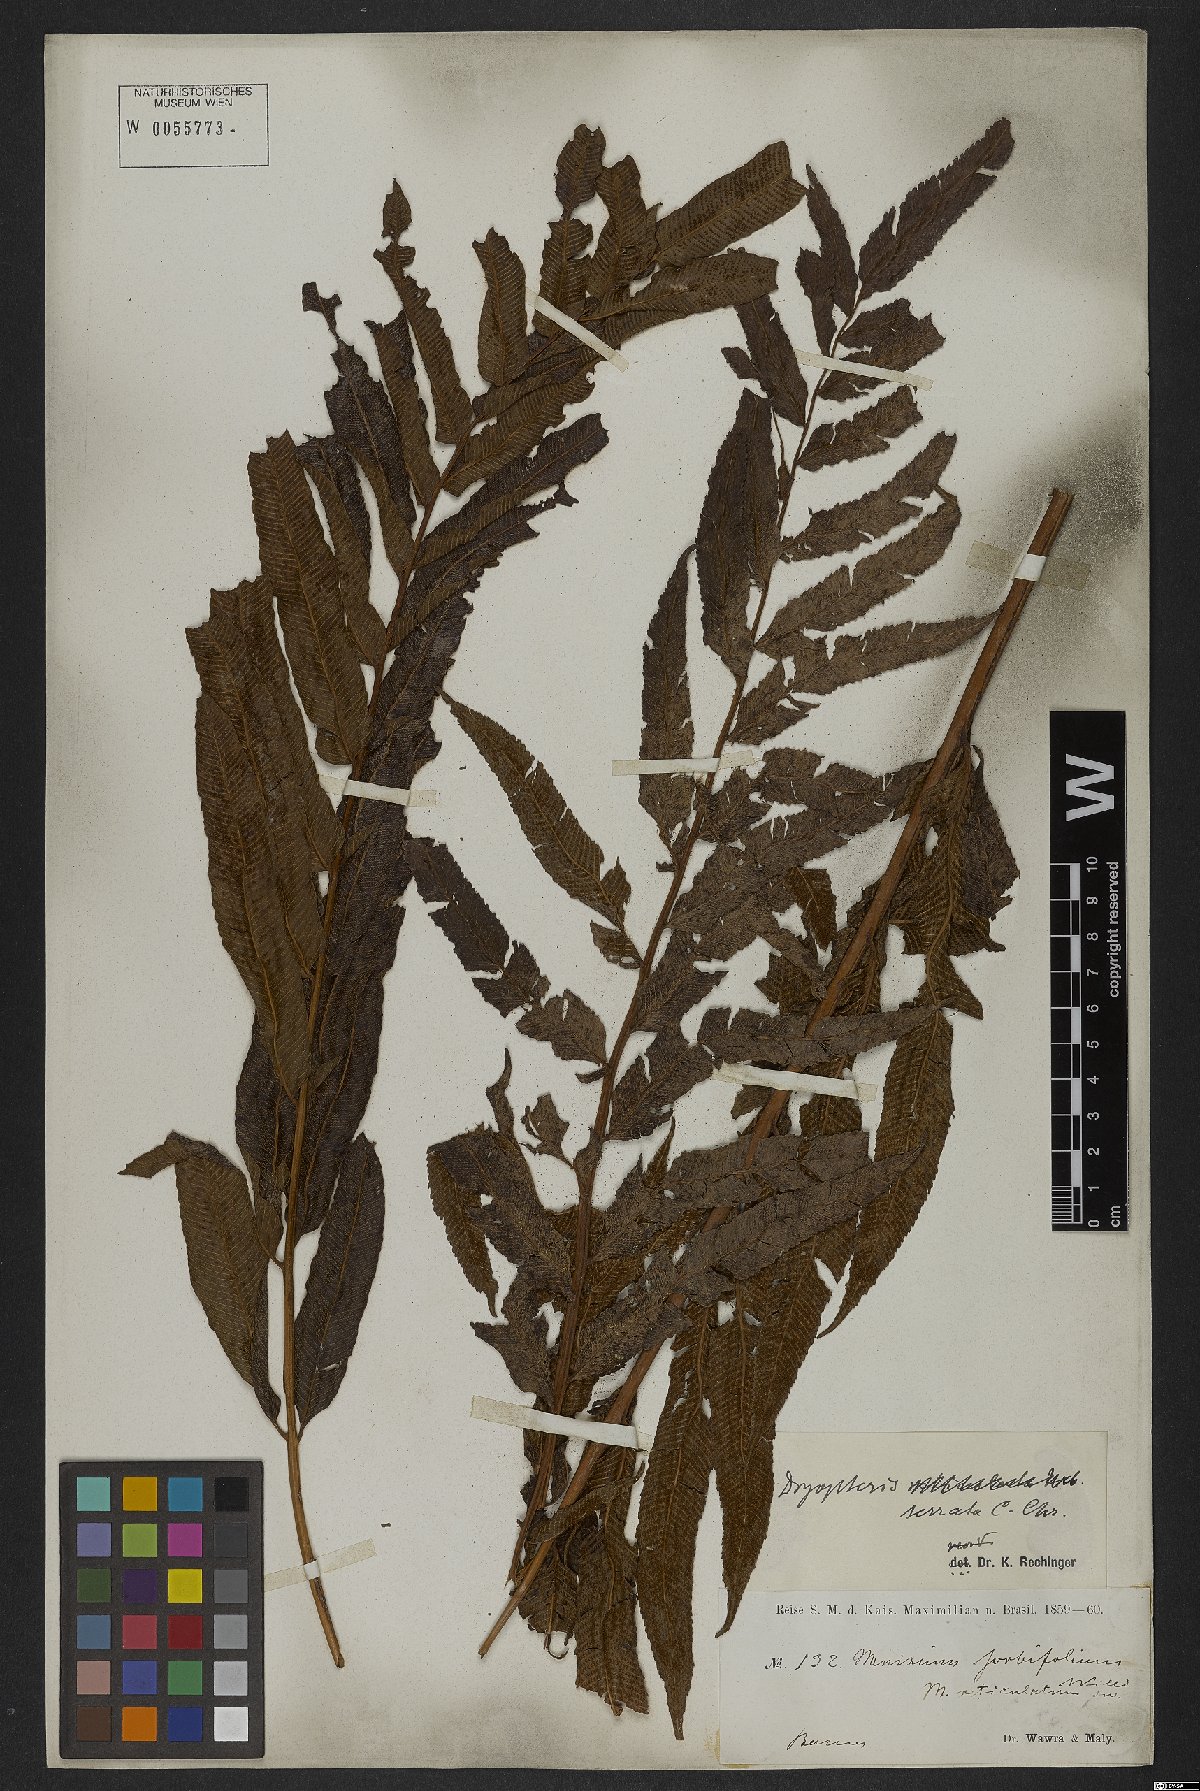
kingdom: Plantae
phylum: Tracheophyta
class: Polypodiopsida
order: Polypodiales
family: Thelypteridaceae
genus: Meniscium
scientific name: Meniscium serratum
